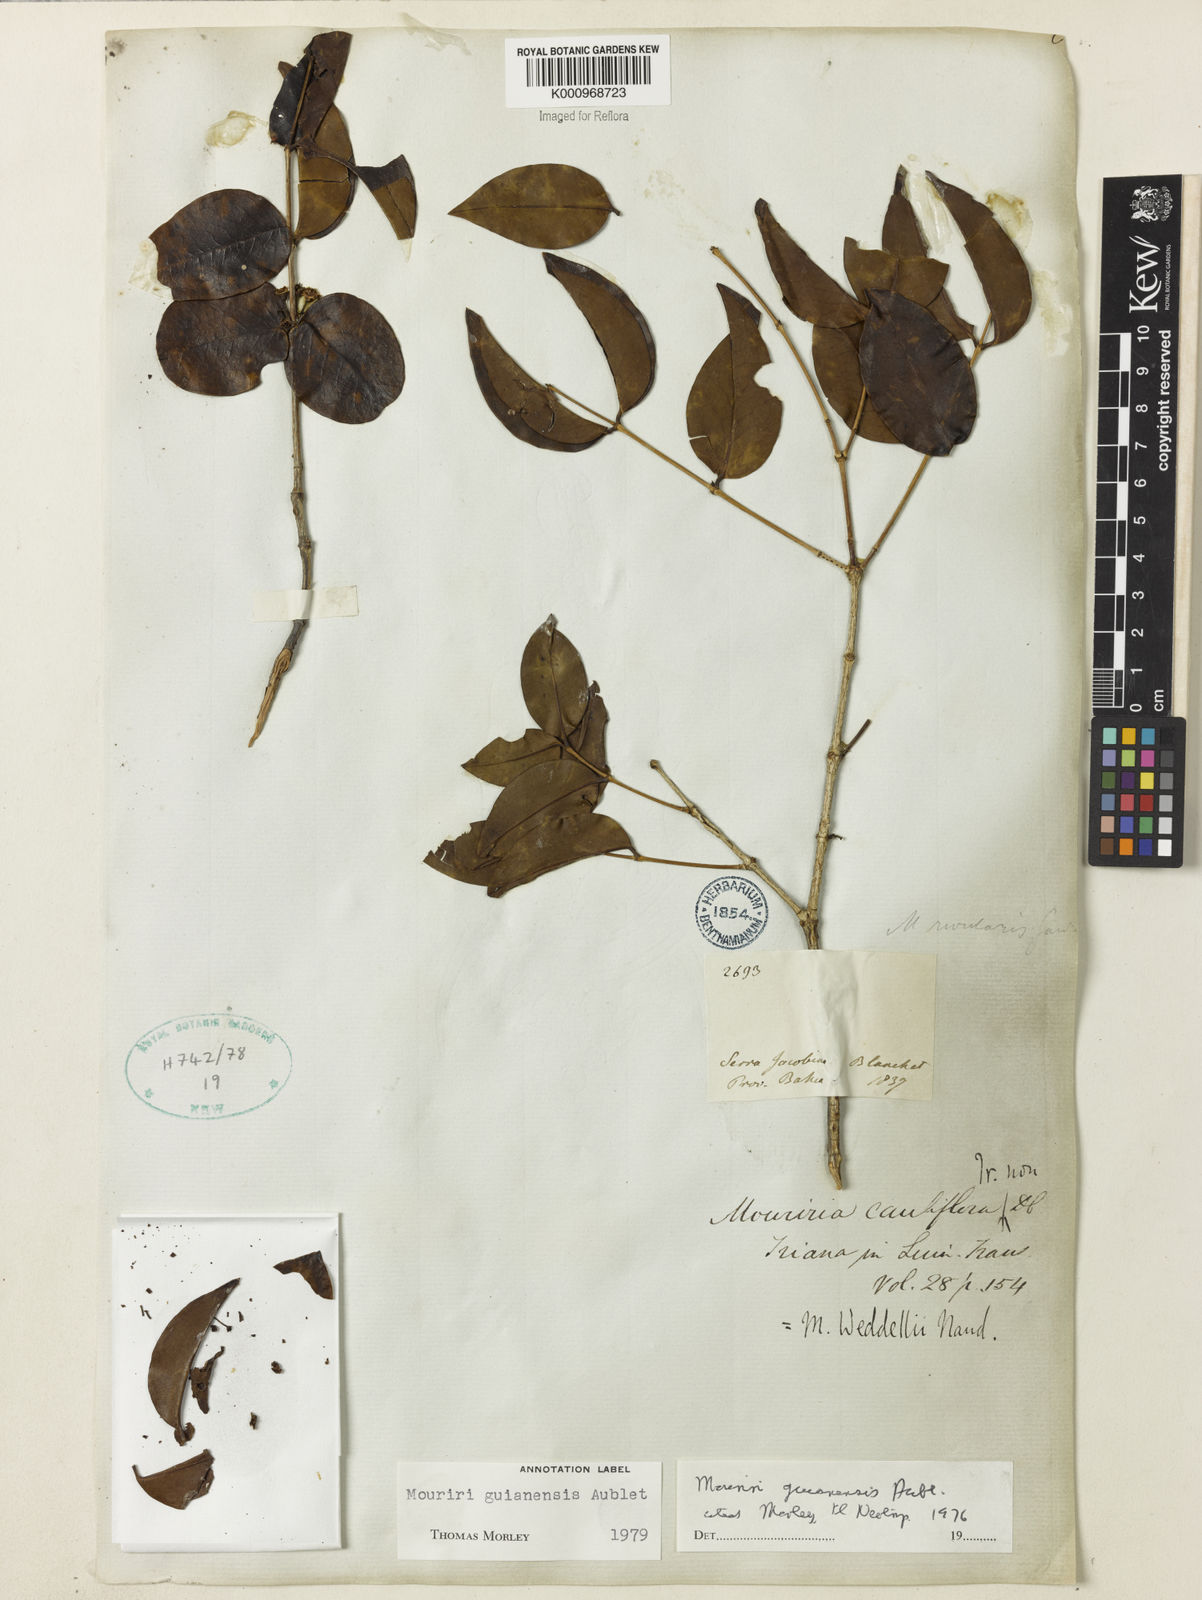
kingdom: Plantae
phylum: Tracheophyta
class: Magnoliopsida
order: Myrtales
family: Melastomataceae
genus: Mouriri
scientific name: Mouriri guianensis
